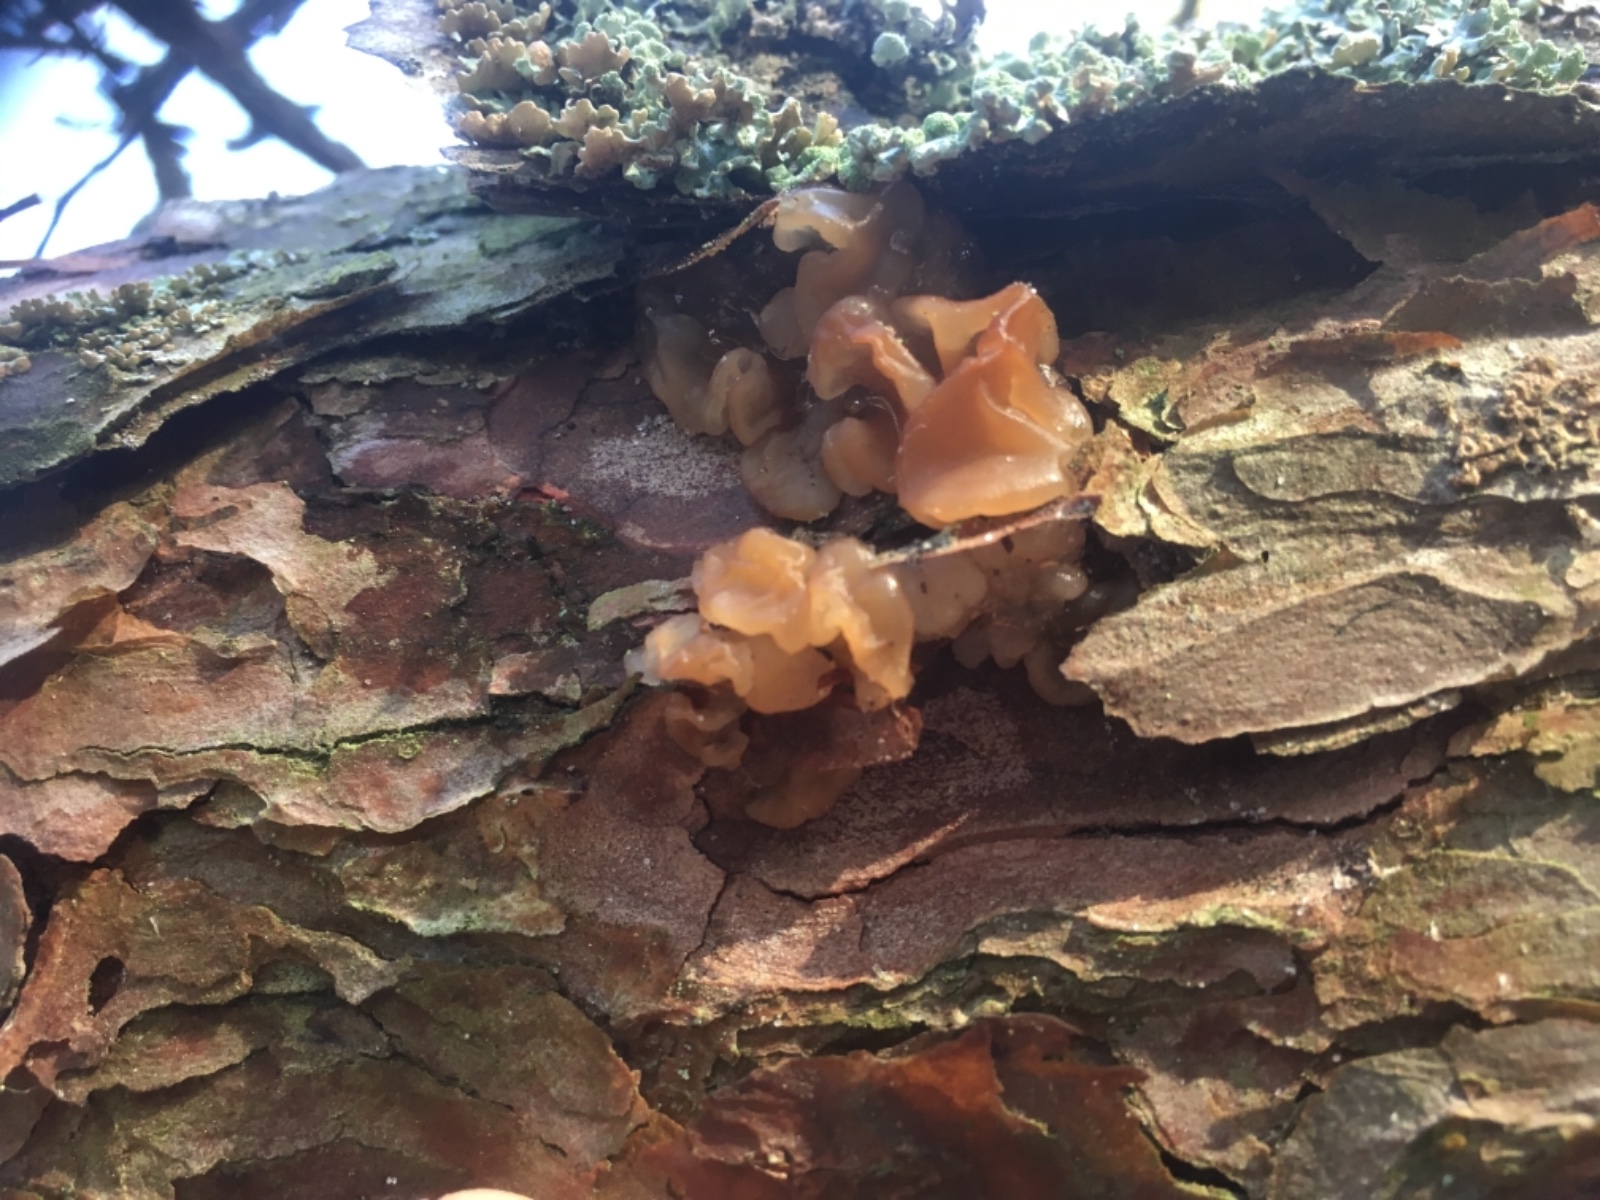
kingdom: Fungi
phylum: Basidiomycota
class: Tremellomycetes
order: Tremellales
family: Tremellaceae
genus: Phaeotremella
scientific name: Phaeotremella foliacea
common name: brun bævresvamp
